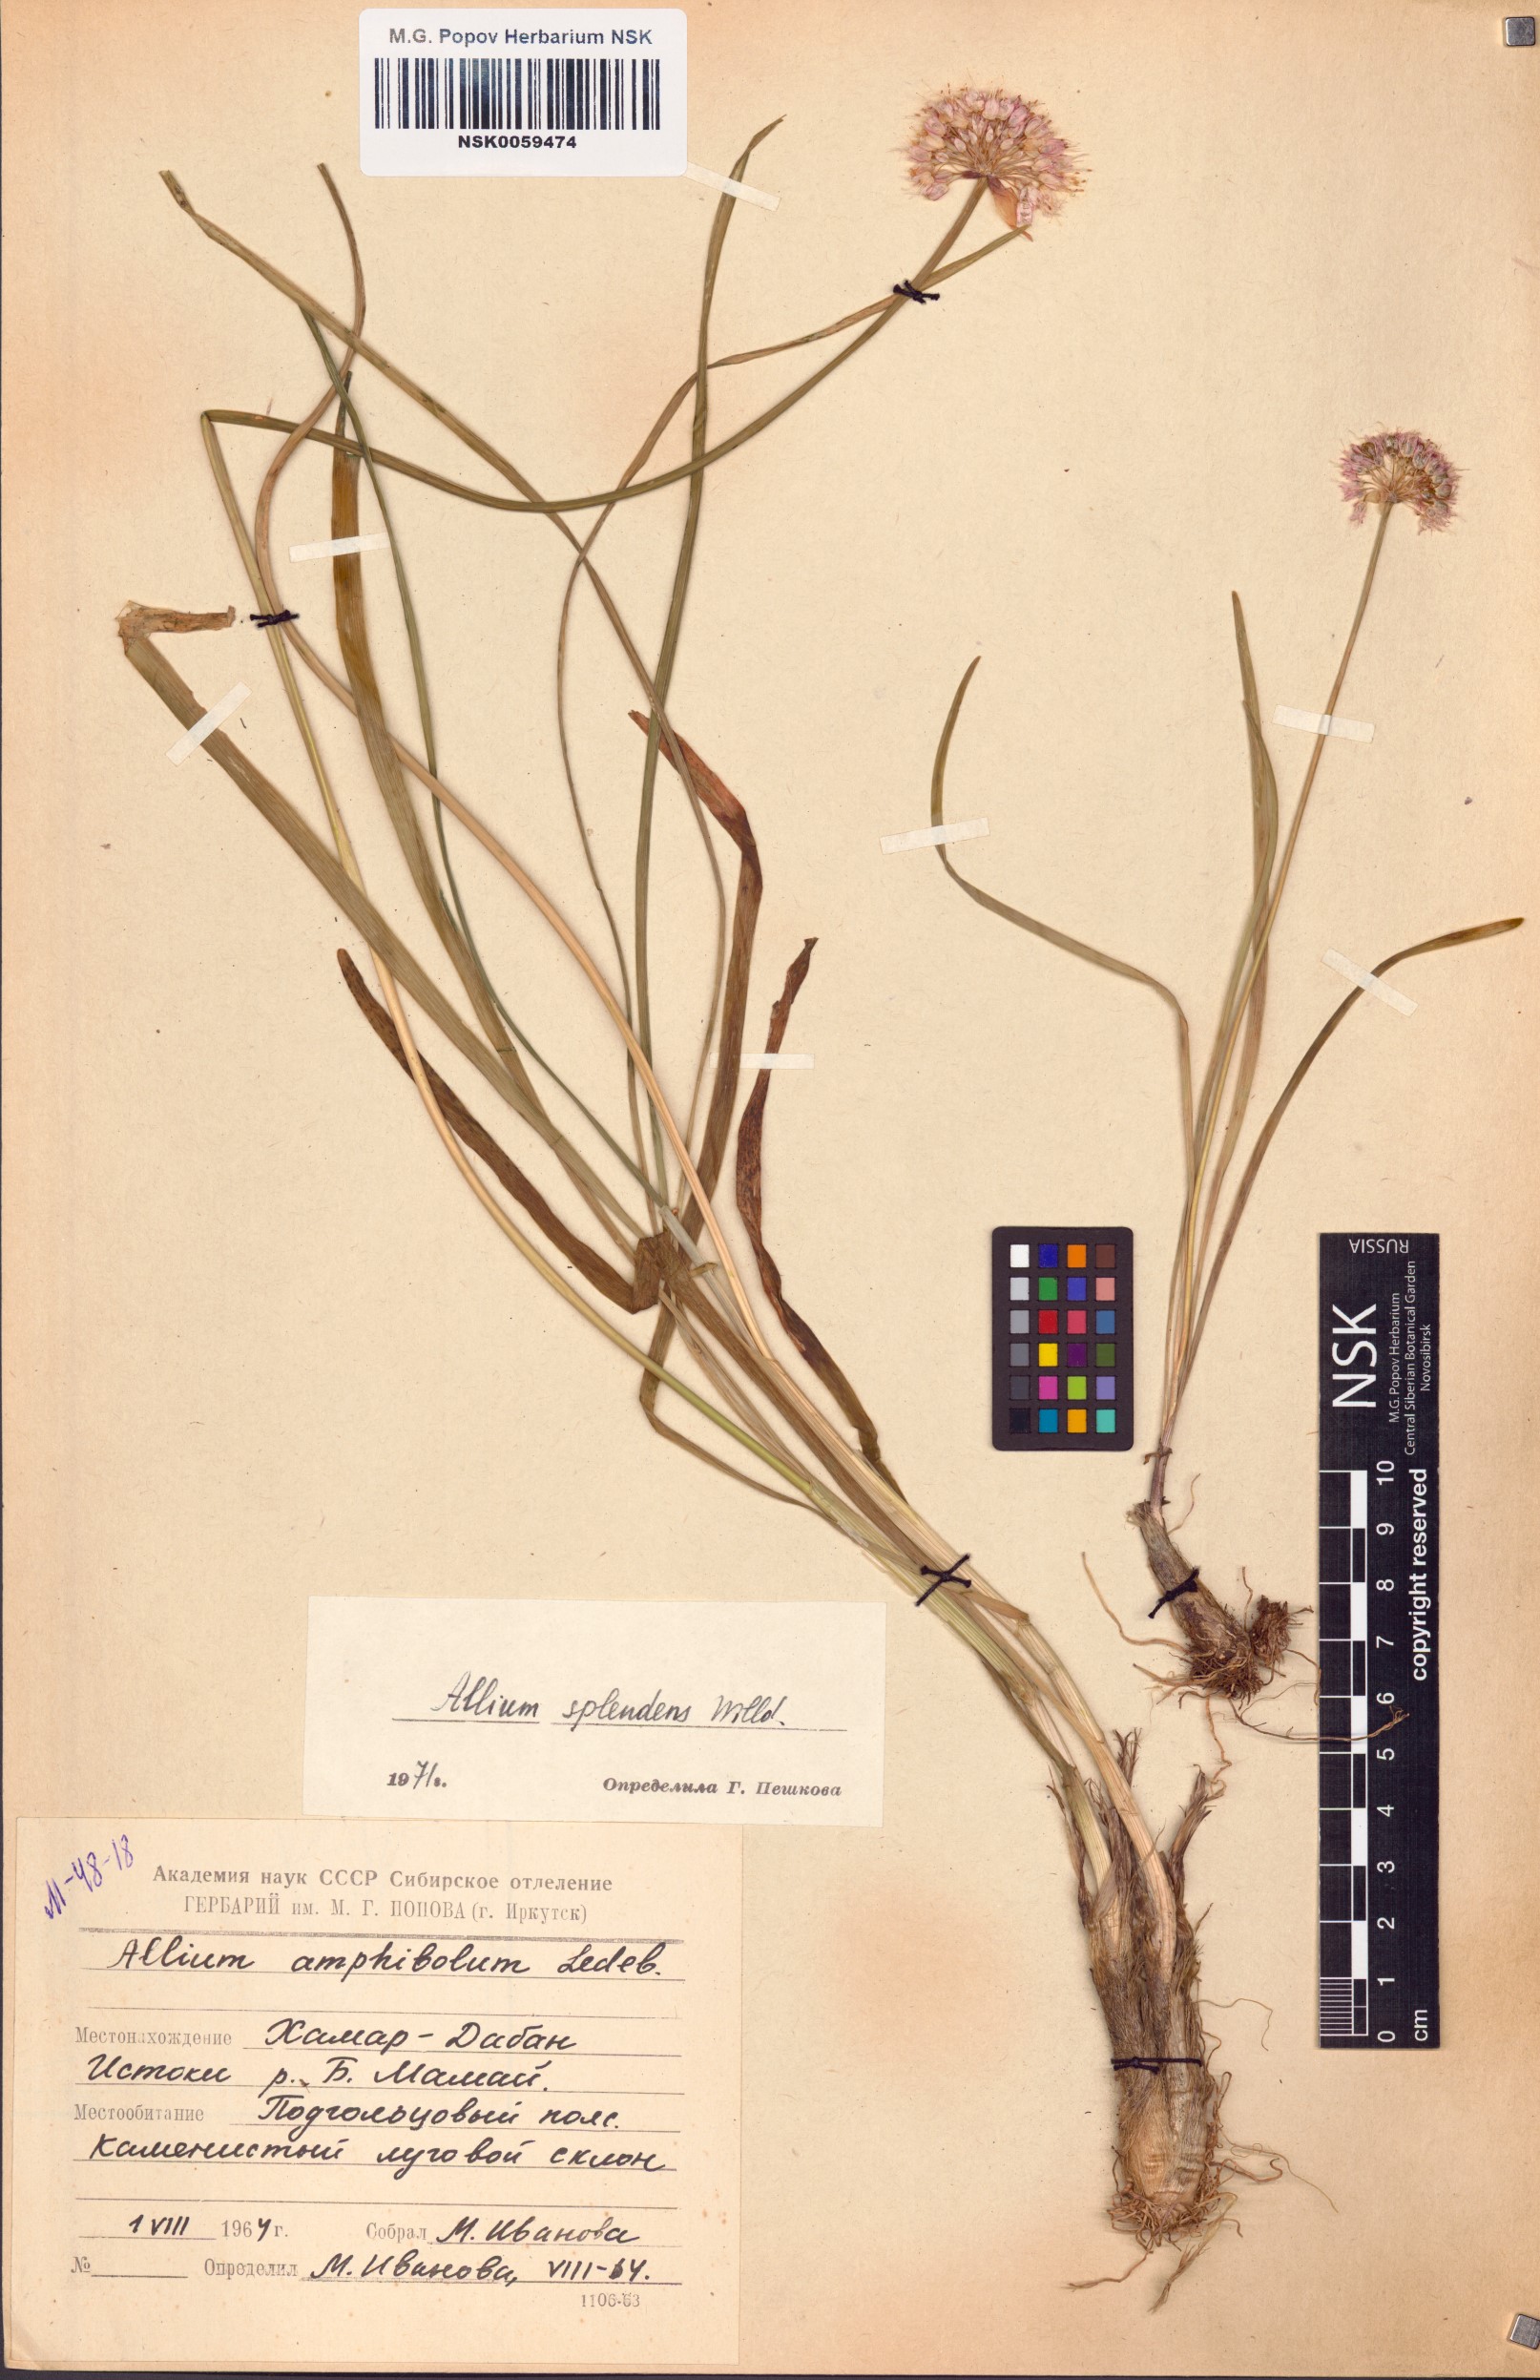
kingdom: Plantae
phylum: Tracheophyta
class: Liliopsida
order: Asparagales
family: Amaryllidaceae
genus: Allium
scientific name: Allium splendens
